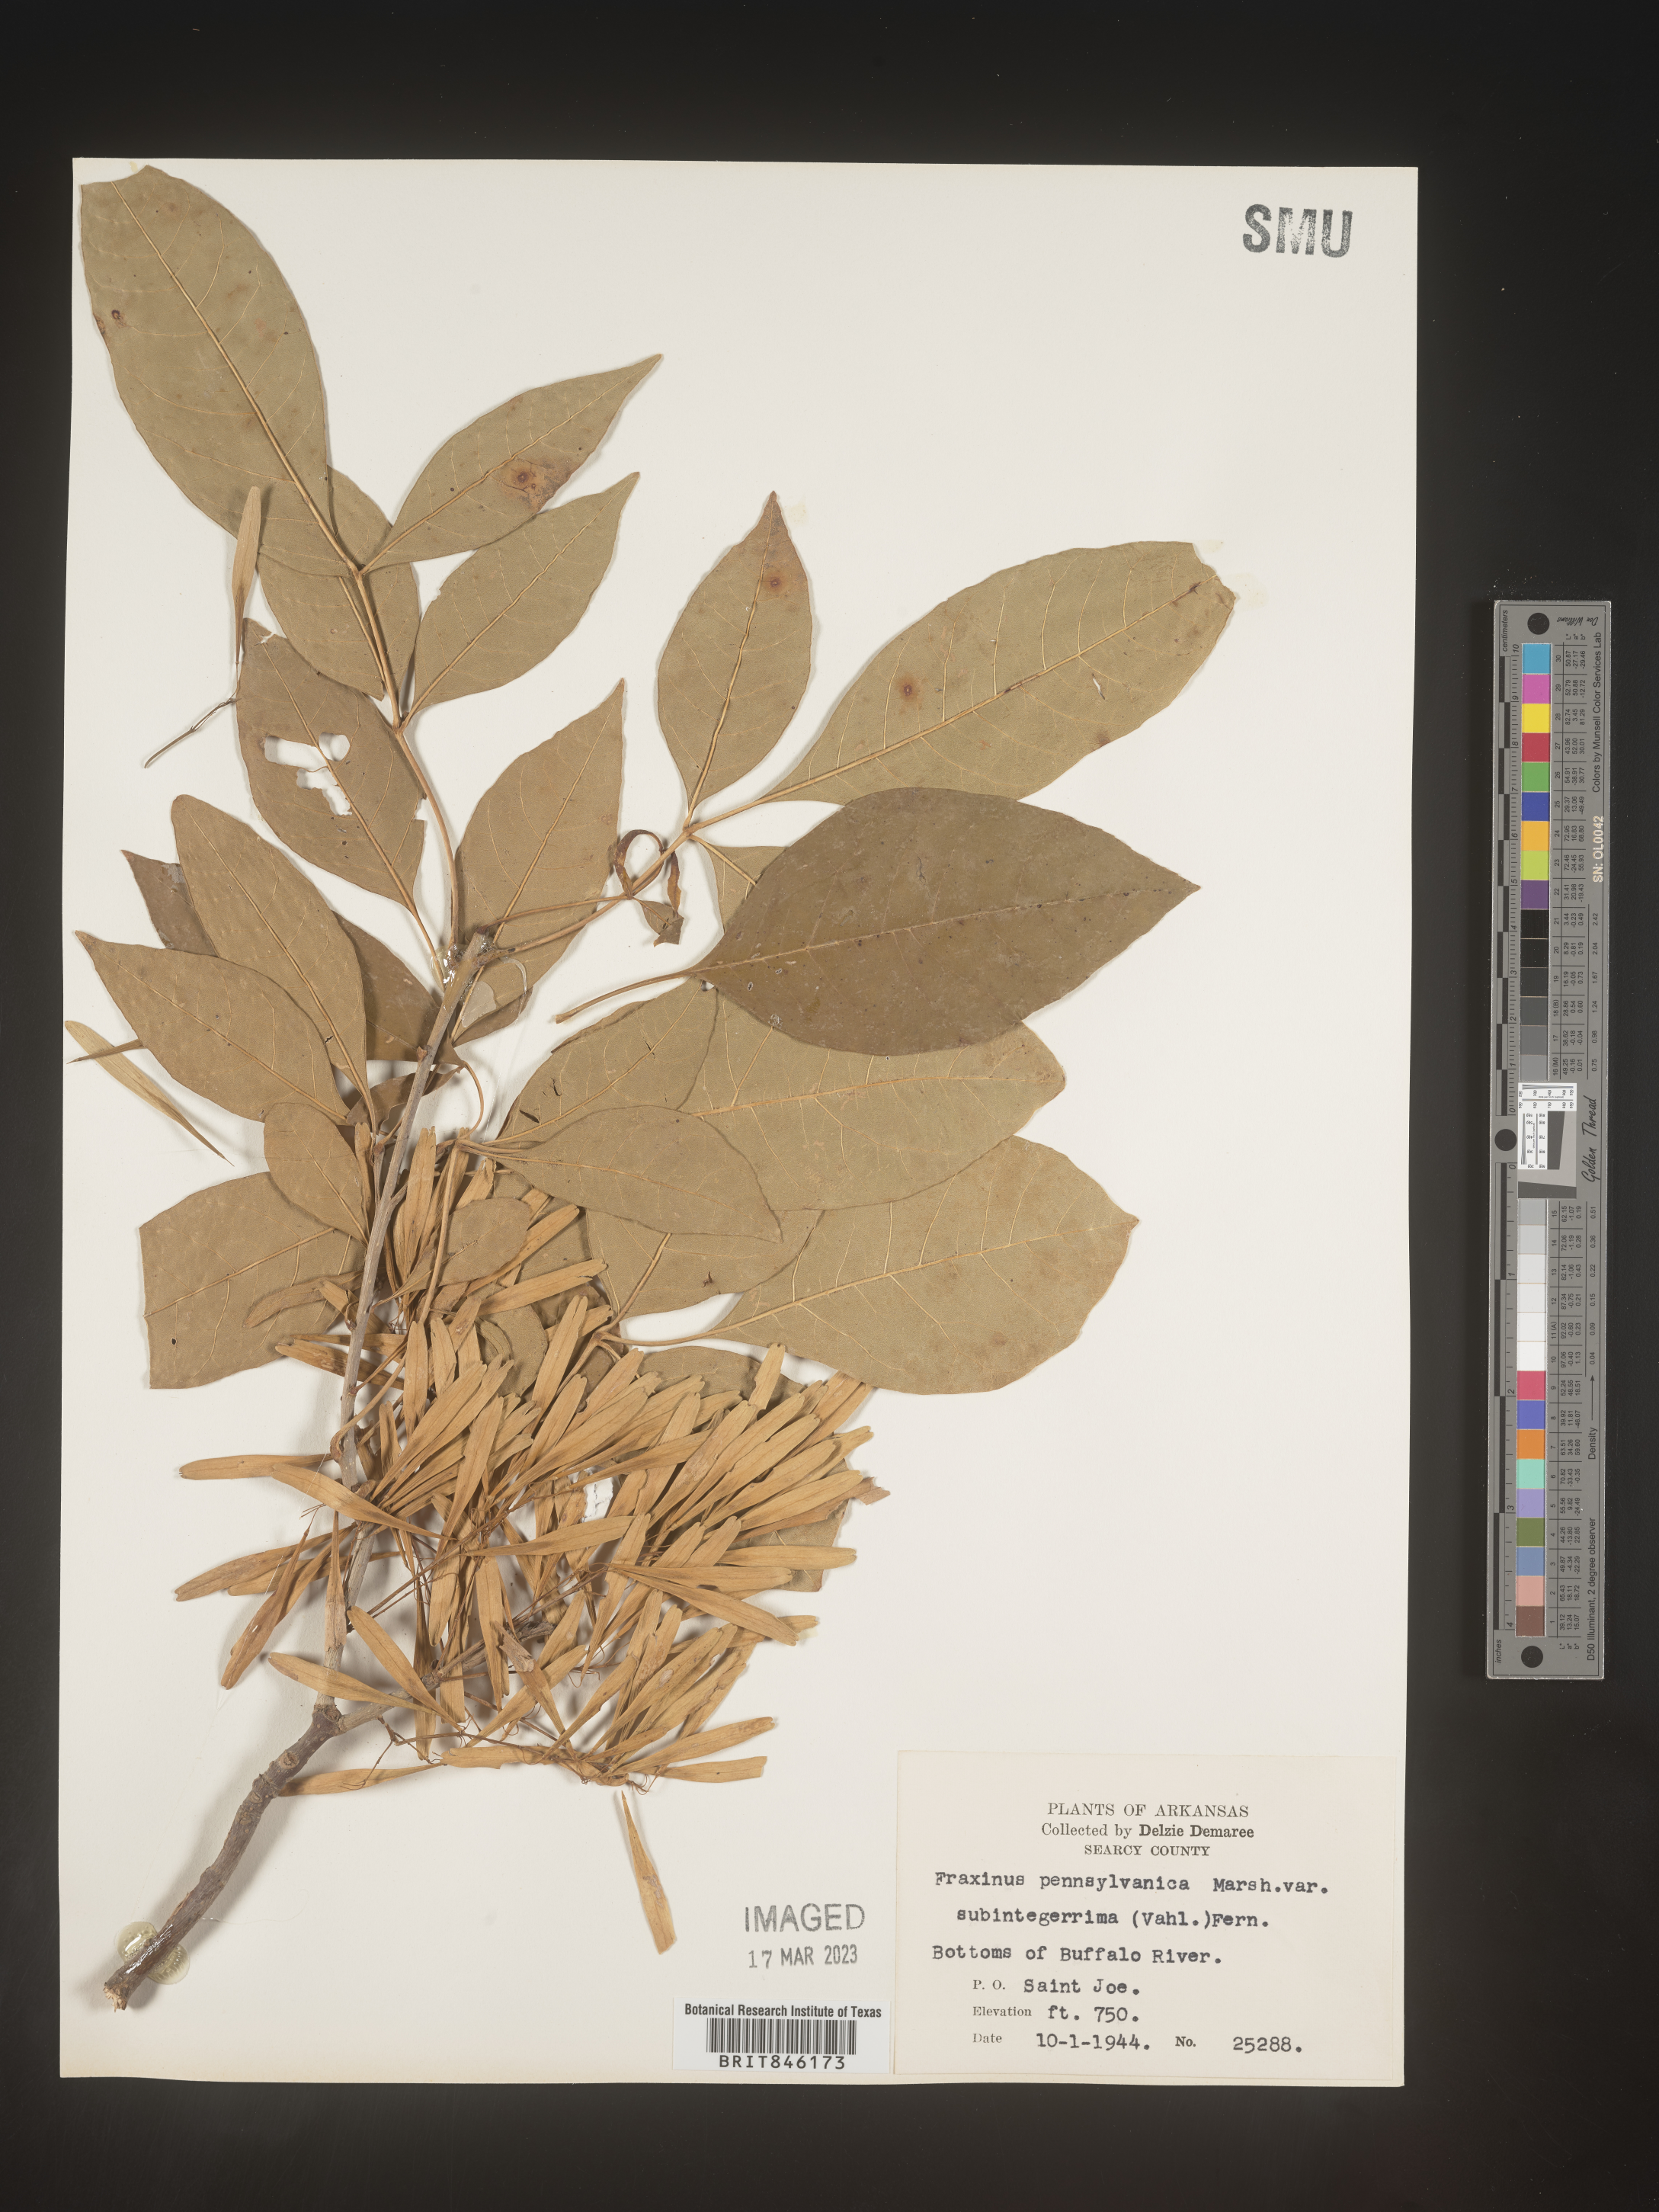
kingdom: Plantae
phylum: Tracheophyta
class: Magnoliopsida
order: Lamiales
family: Oleaceae
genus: Fraxinus
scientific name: Fraxinus pennsylvanica
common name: Green ash
